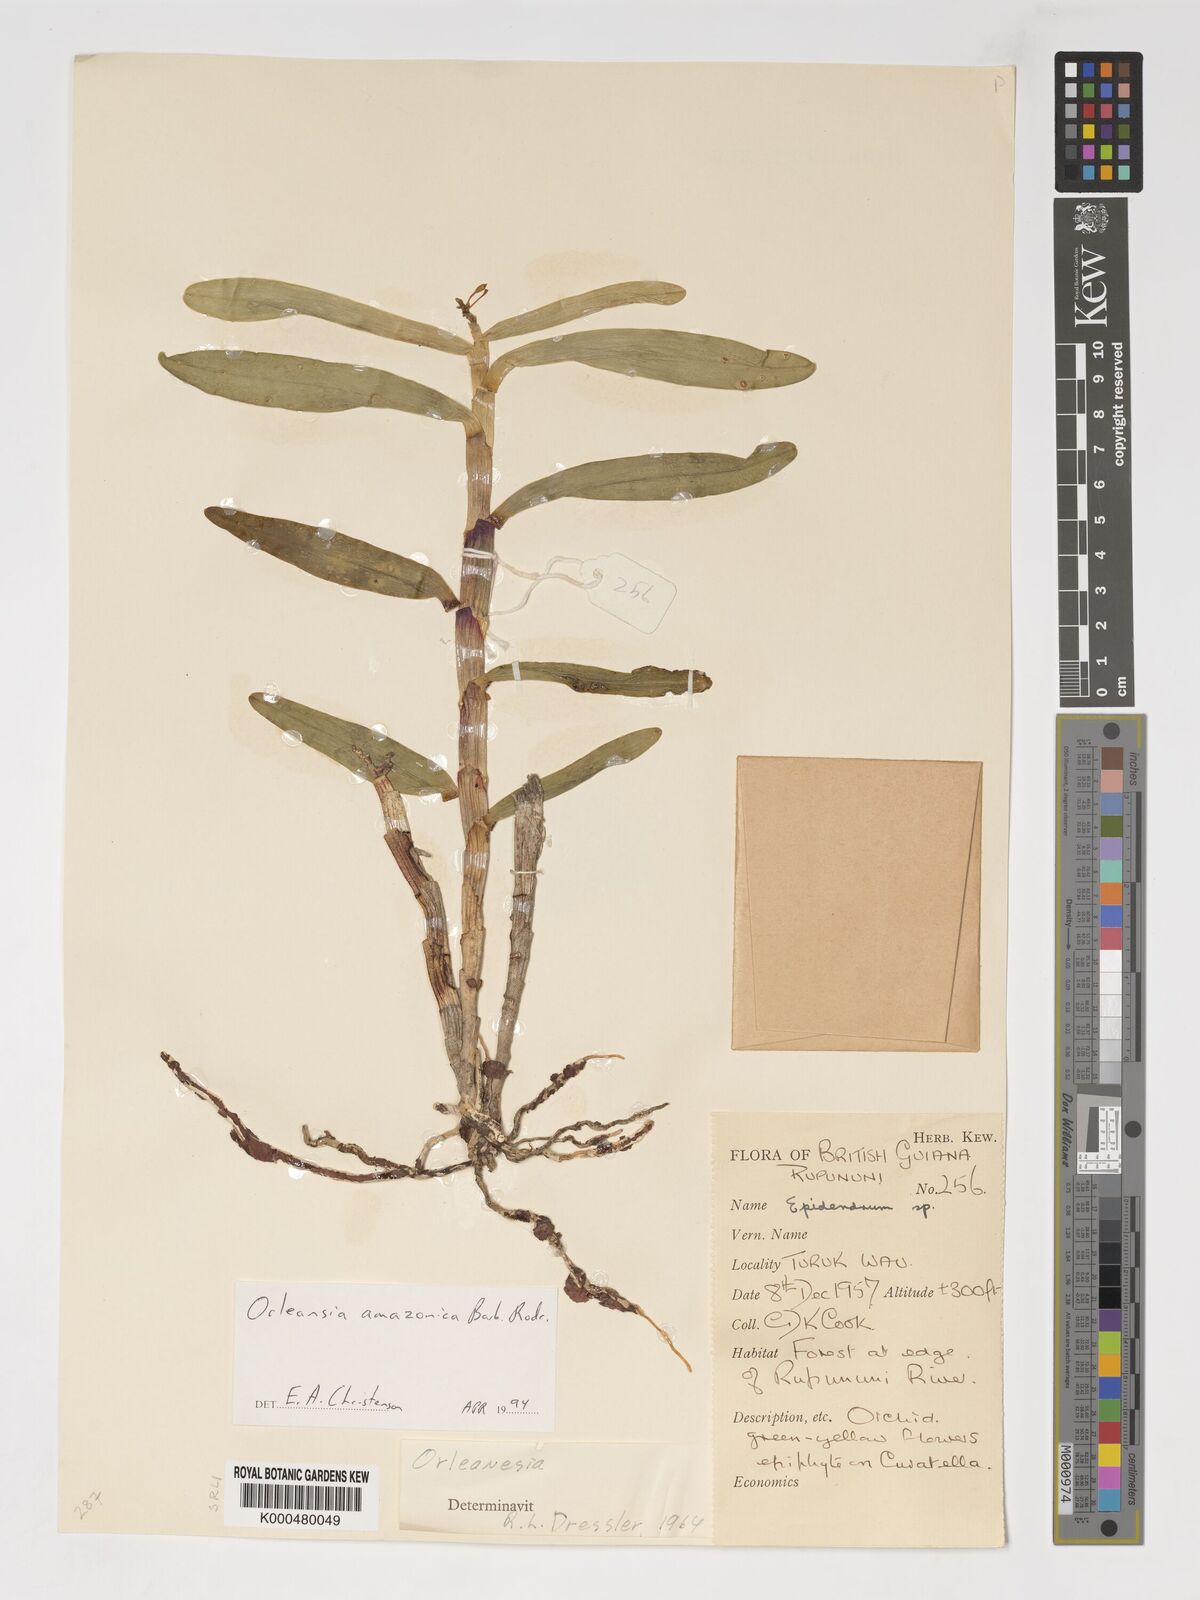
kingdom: Plantae
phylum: Tracheophyta
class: Liliopsida
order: Asparagales
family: Orchidaceae
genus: Orleanesia
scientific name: Orleanesia amazonica
